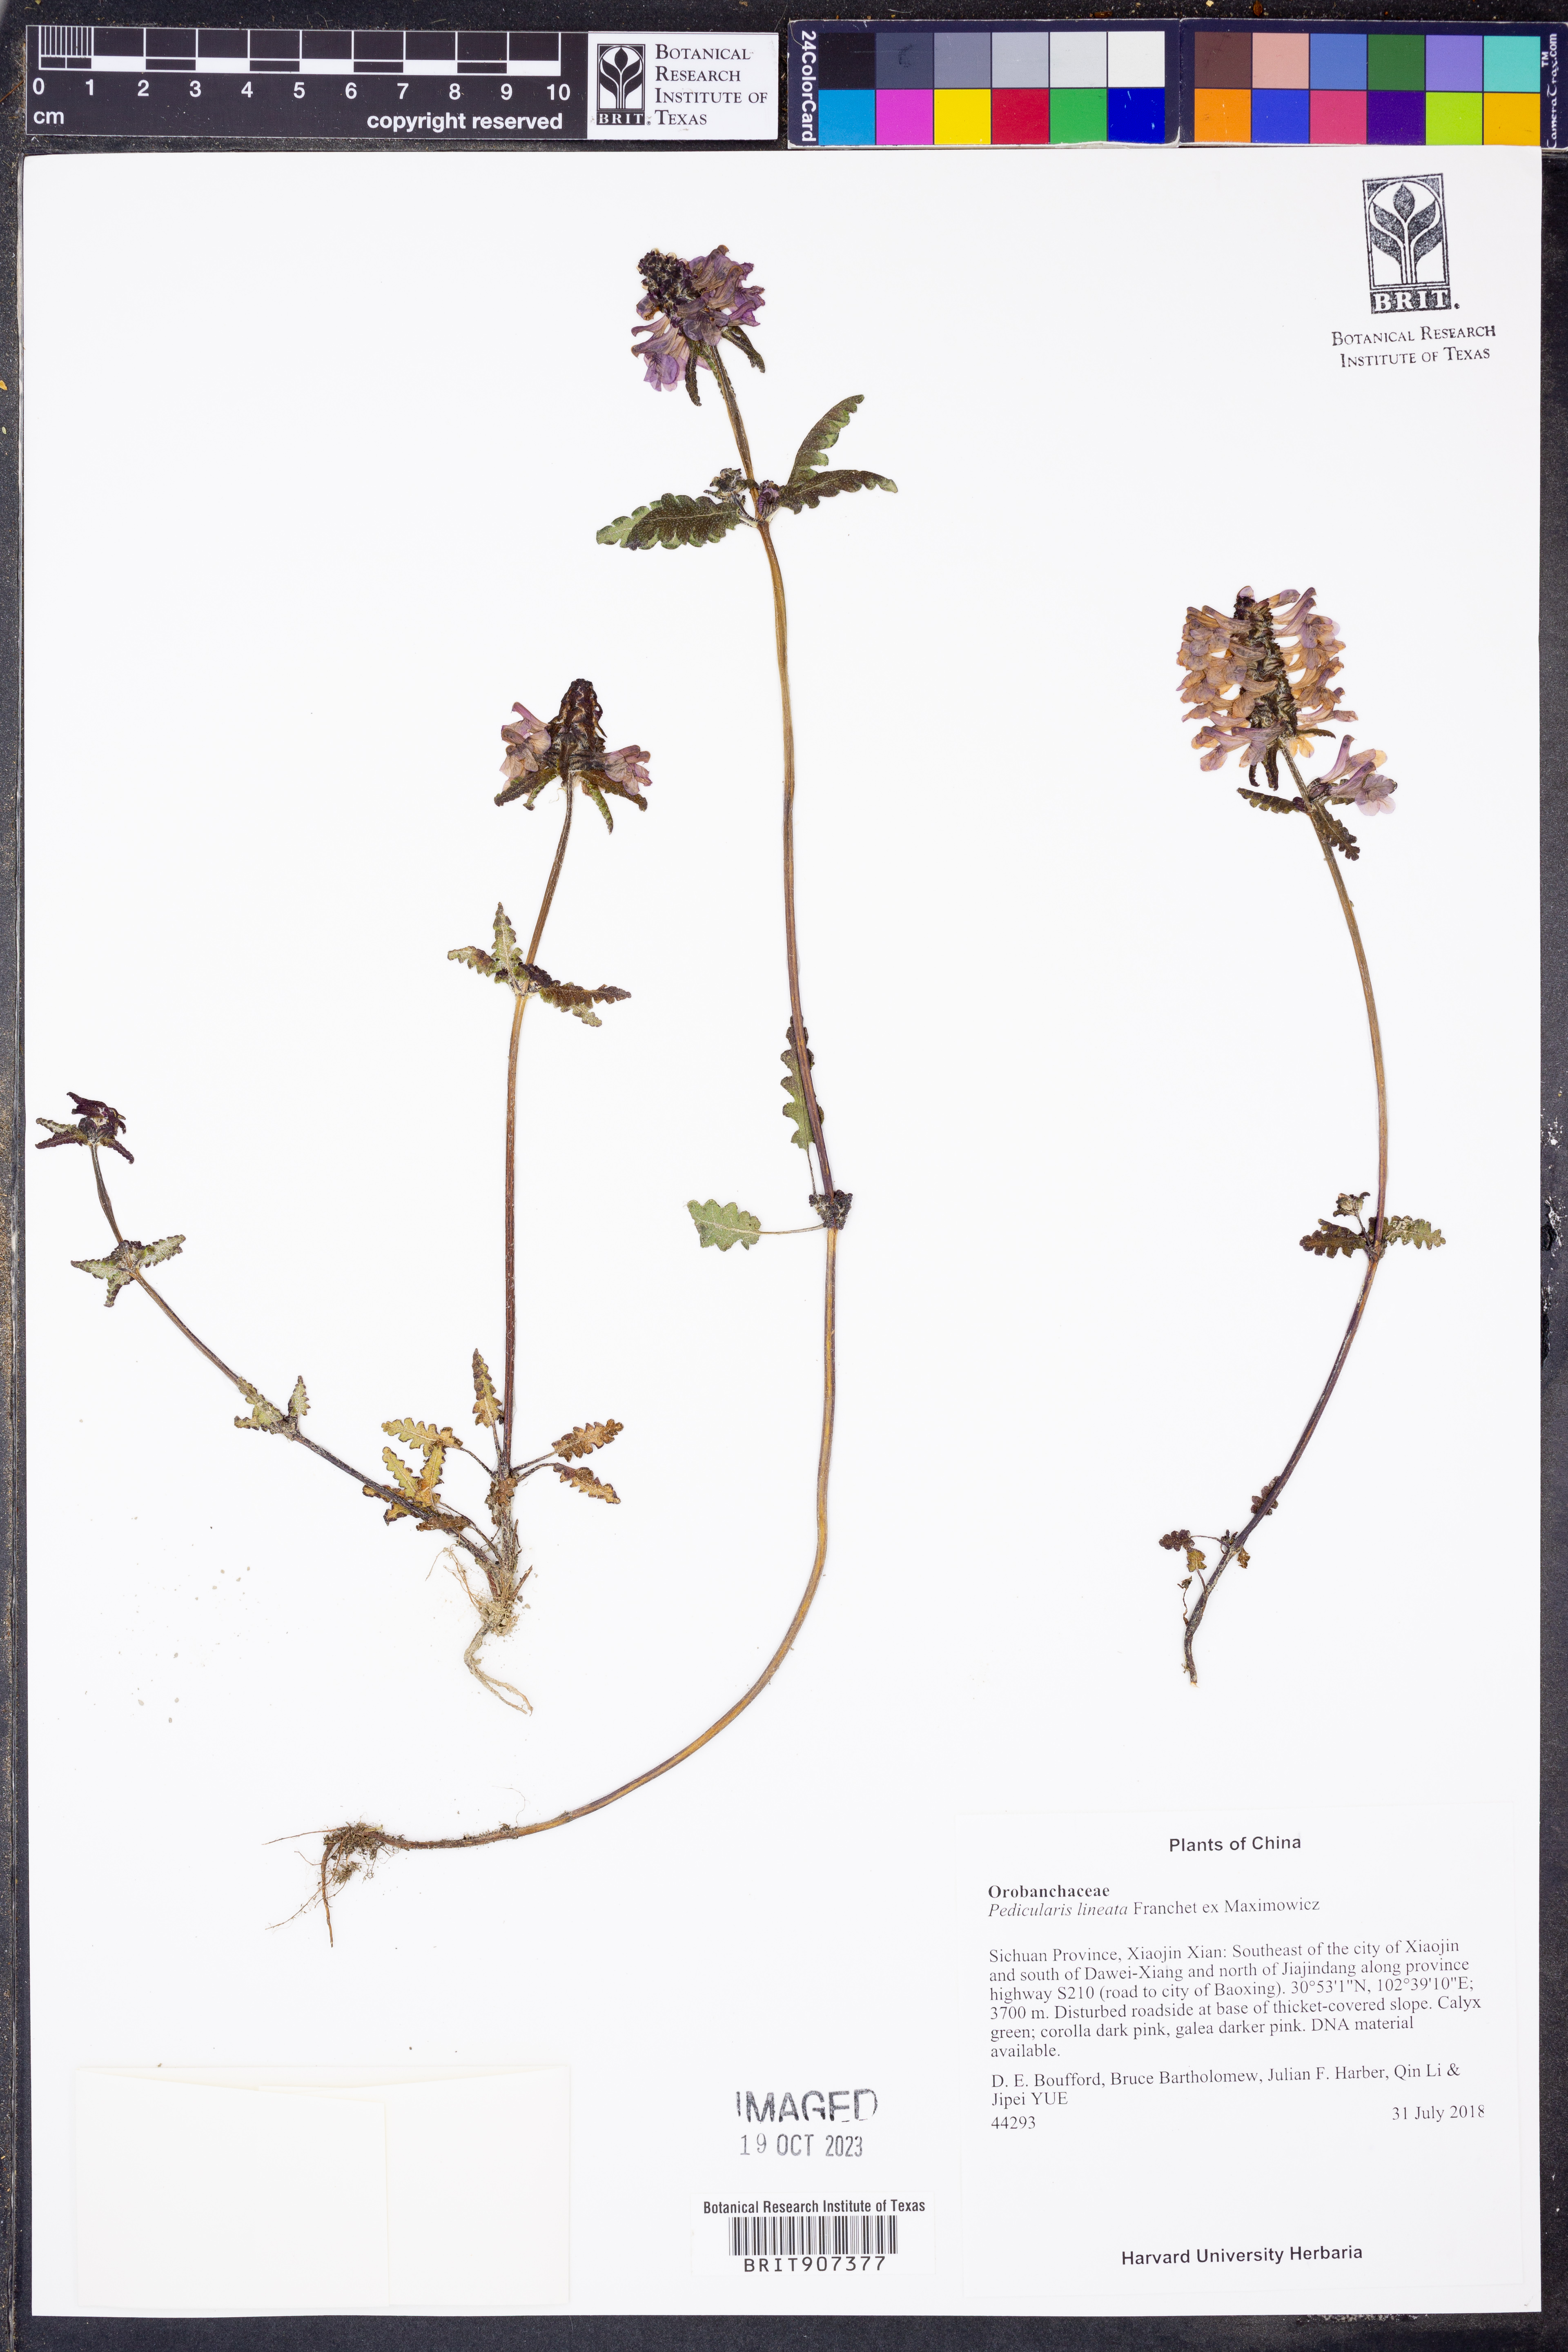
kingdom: Plantae
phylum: Tracheophyta
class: Magnoliopsida
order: Lamiales
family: Orobanchaceae
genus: Pedicularis
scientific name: Pedicularis lineata
